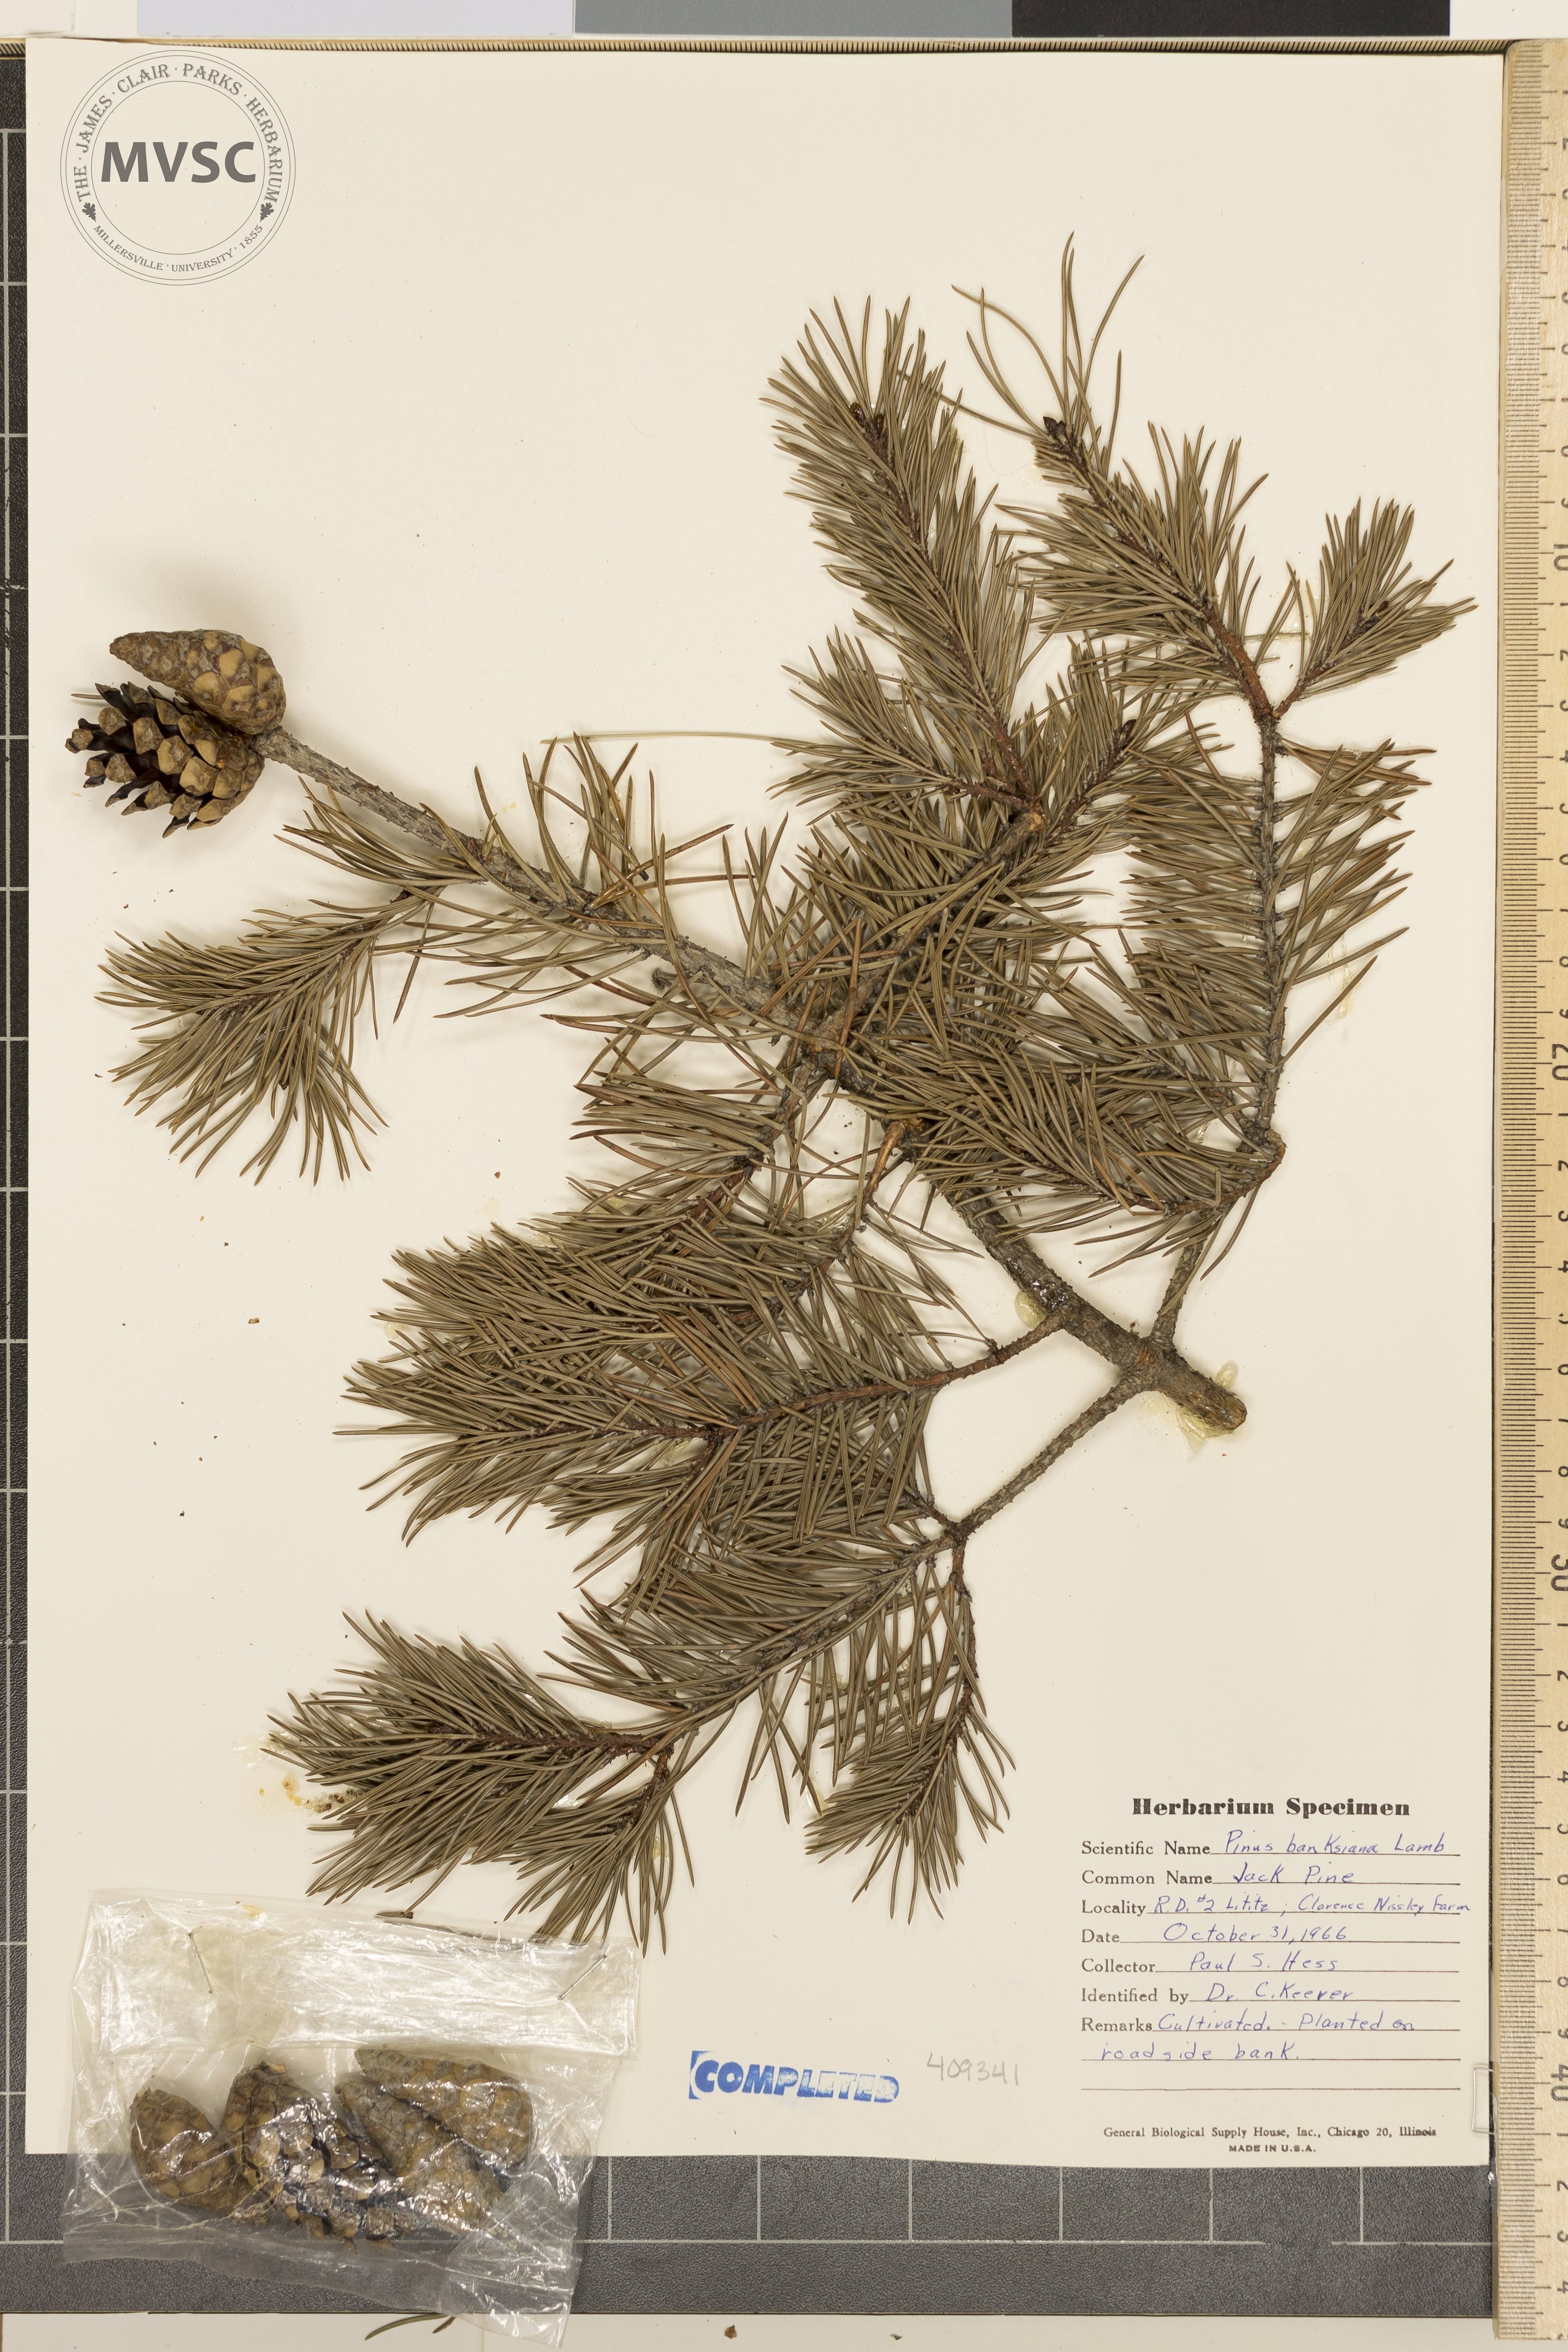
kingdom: Plantae
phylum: Tracheophyta
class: Pinopsida
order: Pinales
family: Pinaceae
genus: Pinus
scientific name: Pinus banksiana
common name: Jack Pine
